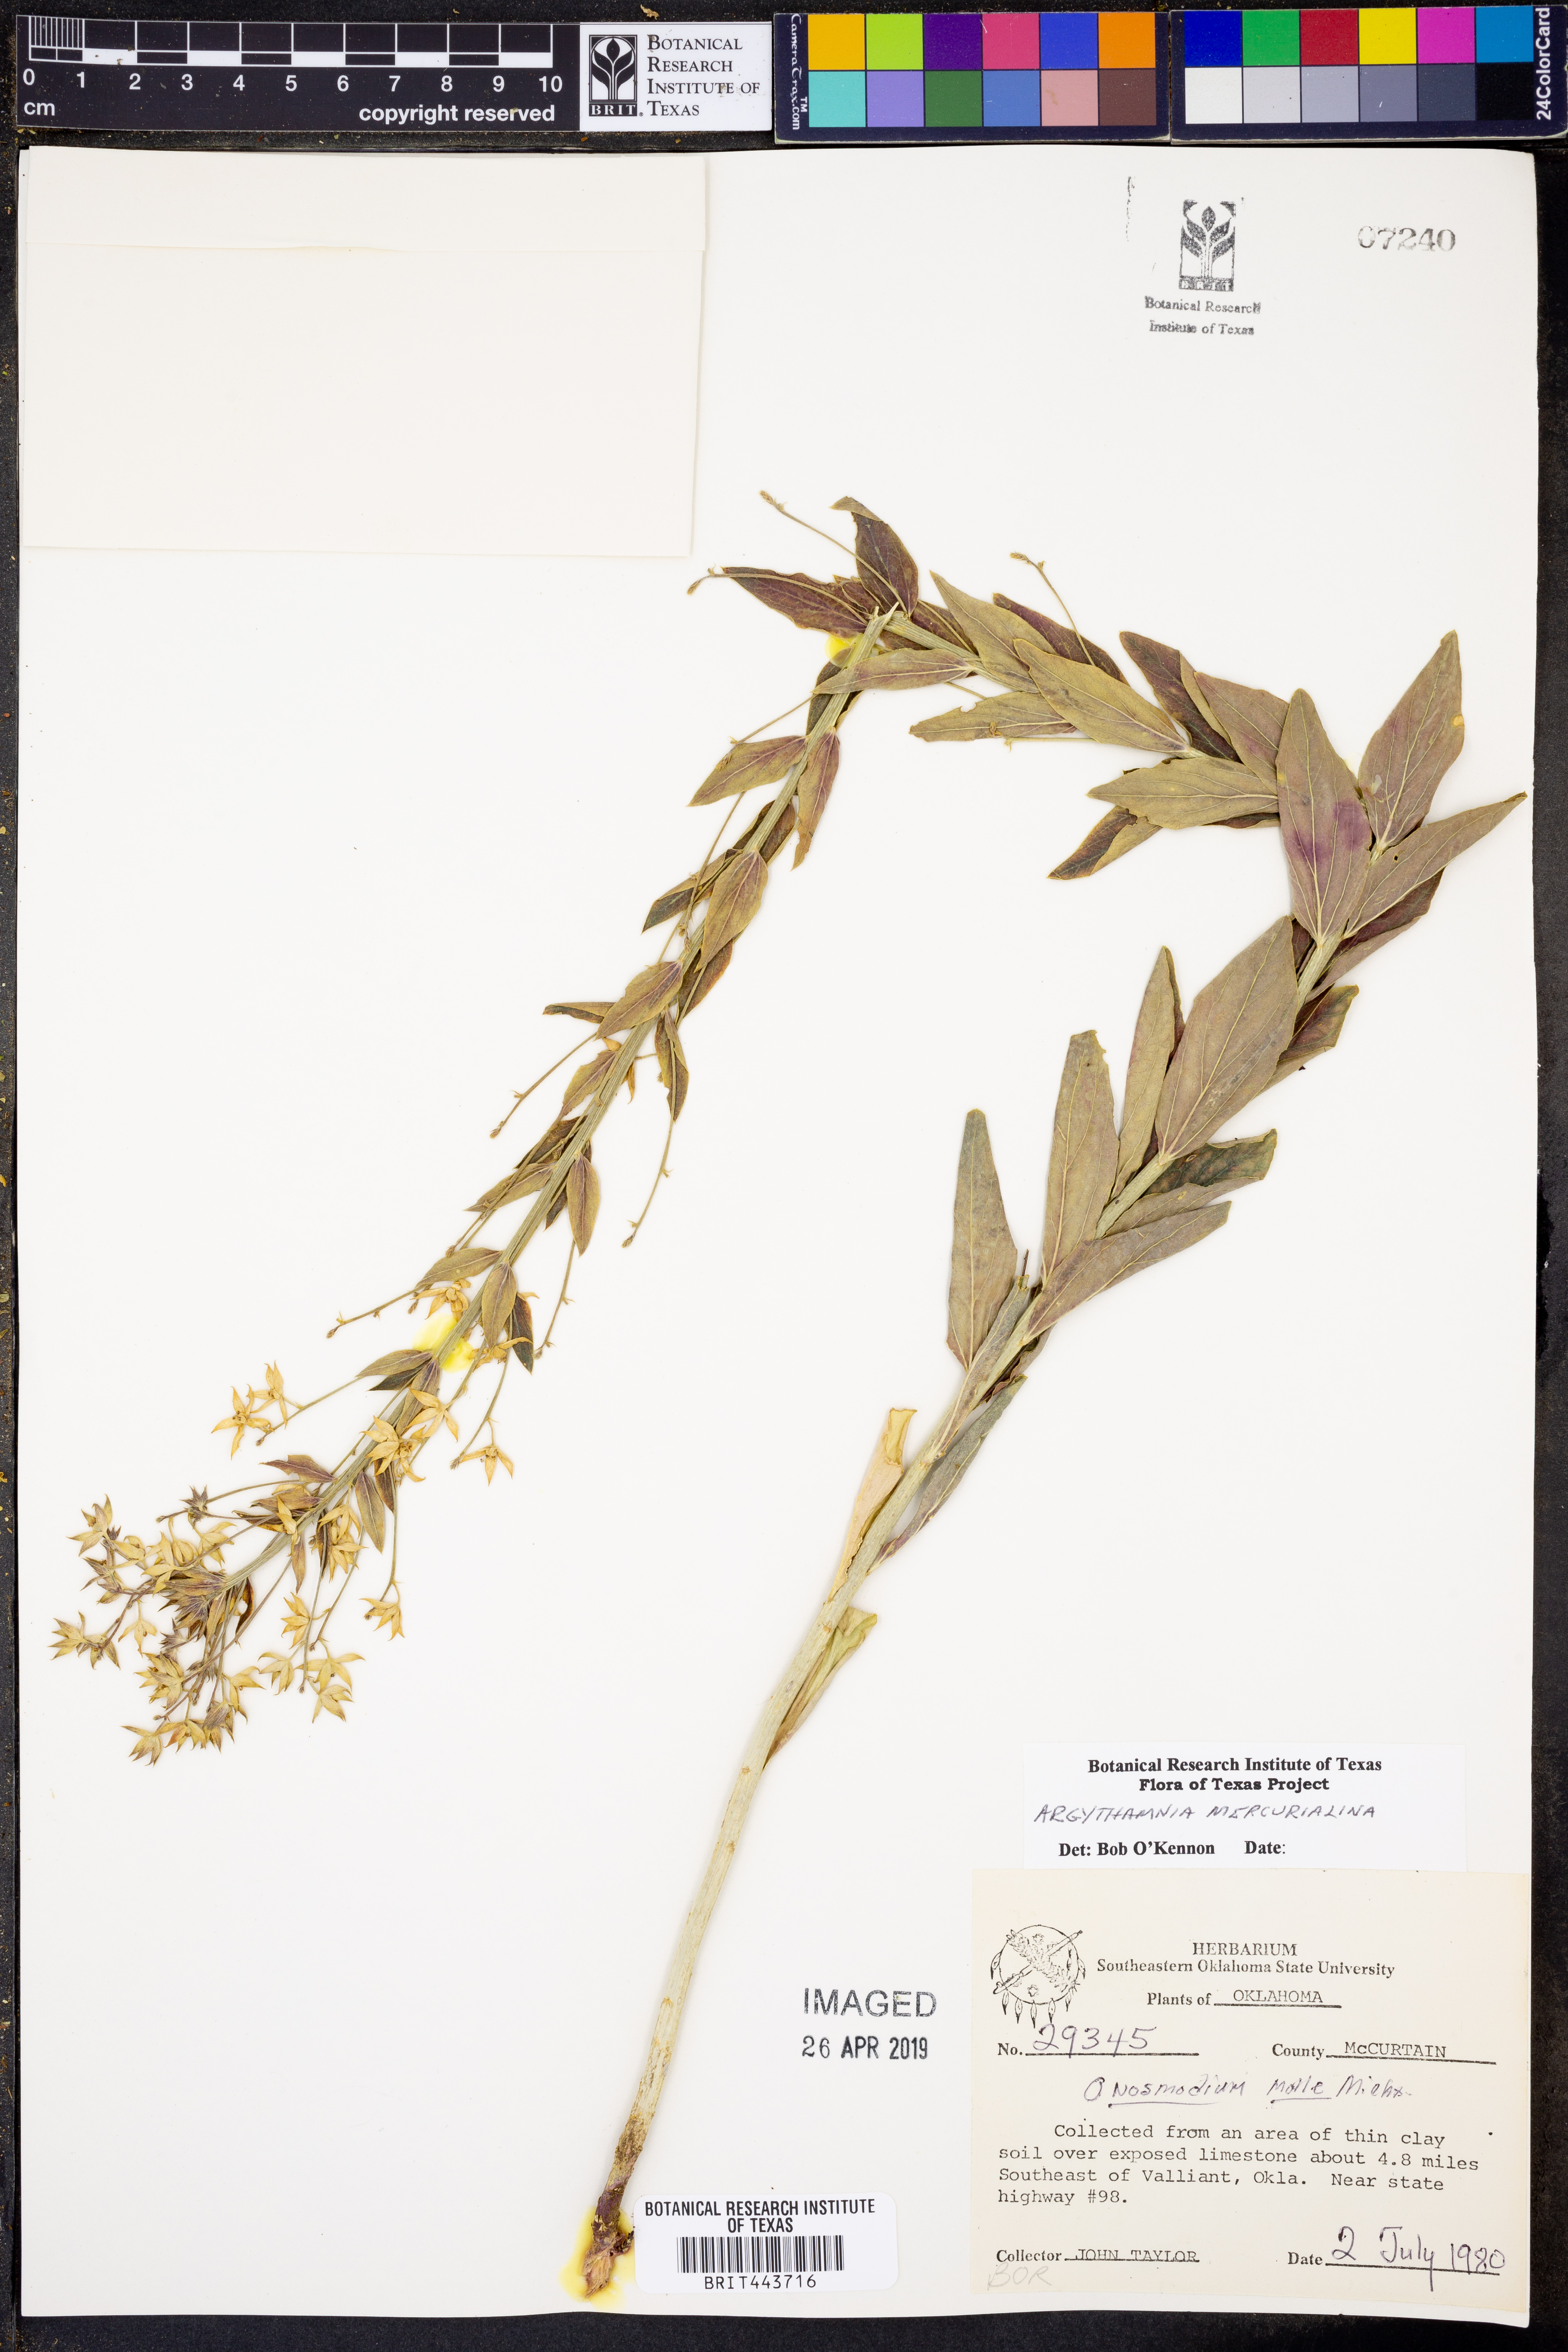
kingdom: Plantae
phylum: Tracheophyta
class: Magnoliopsida
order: Boraginales
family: Boraginaceae
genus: Lithospermum
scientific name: Lithospermum molle
